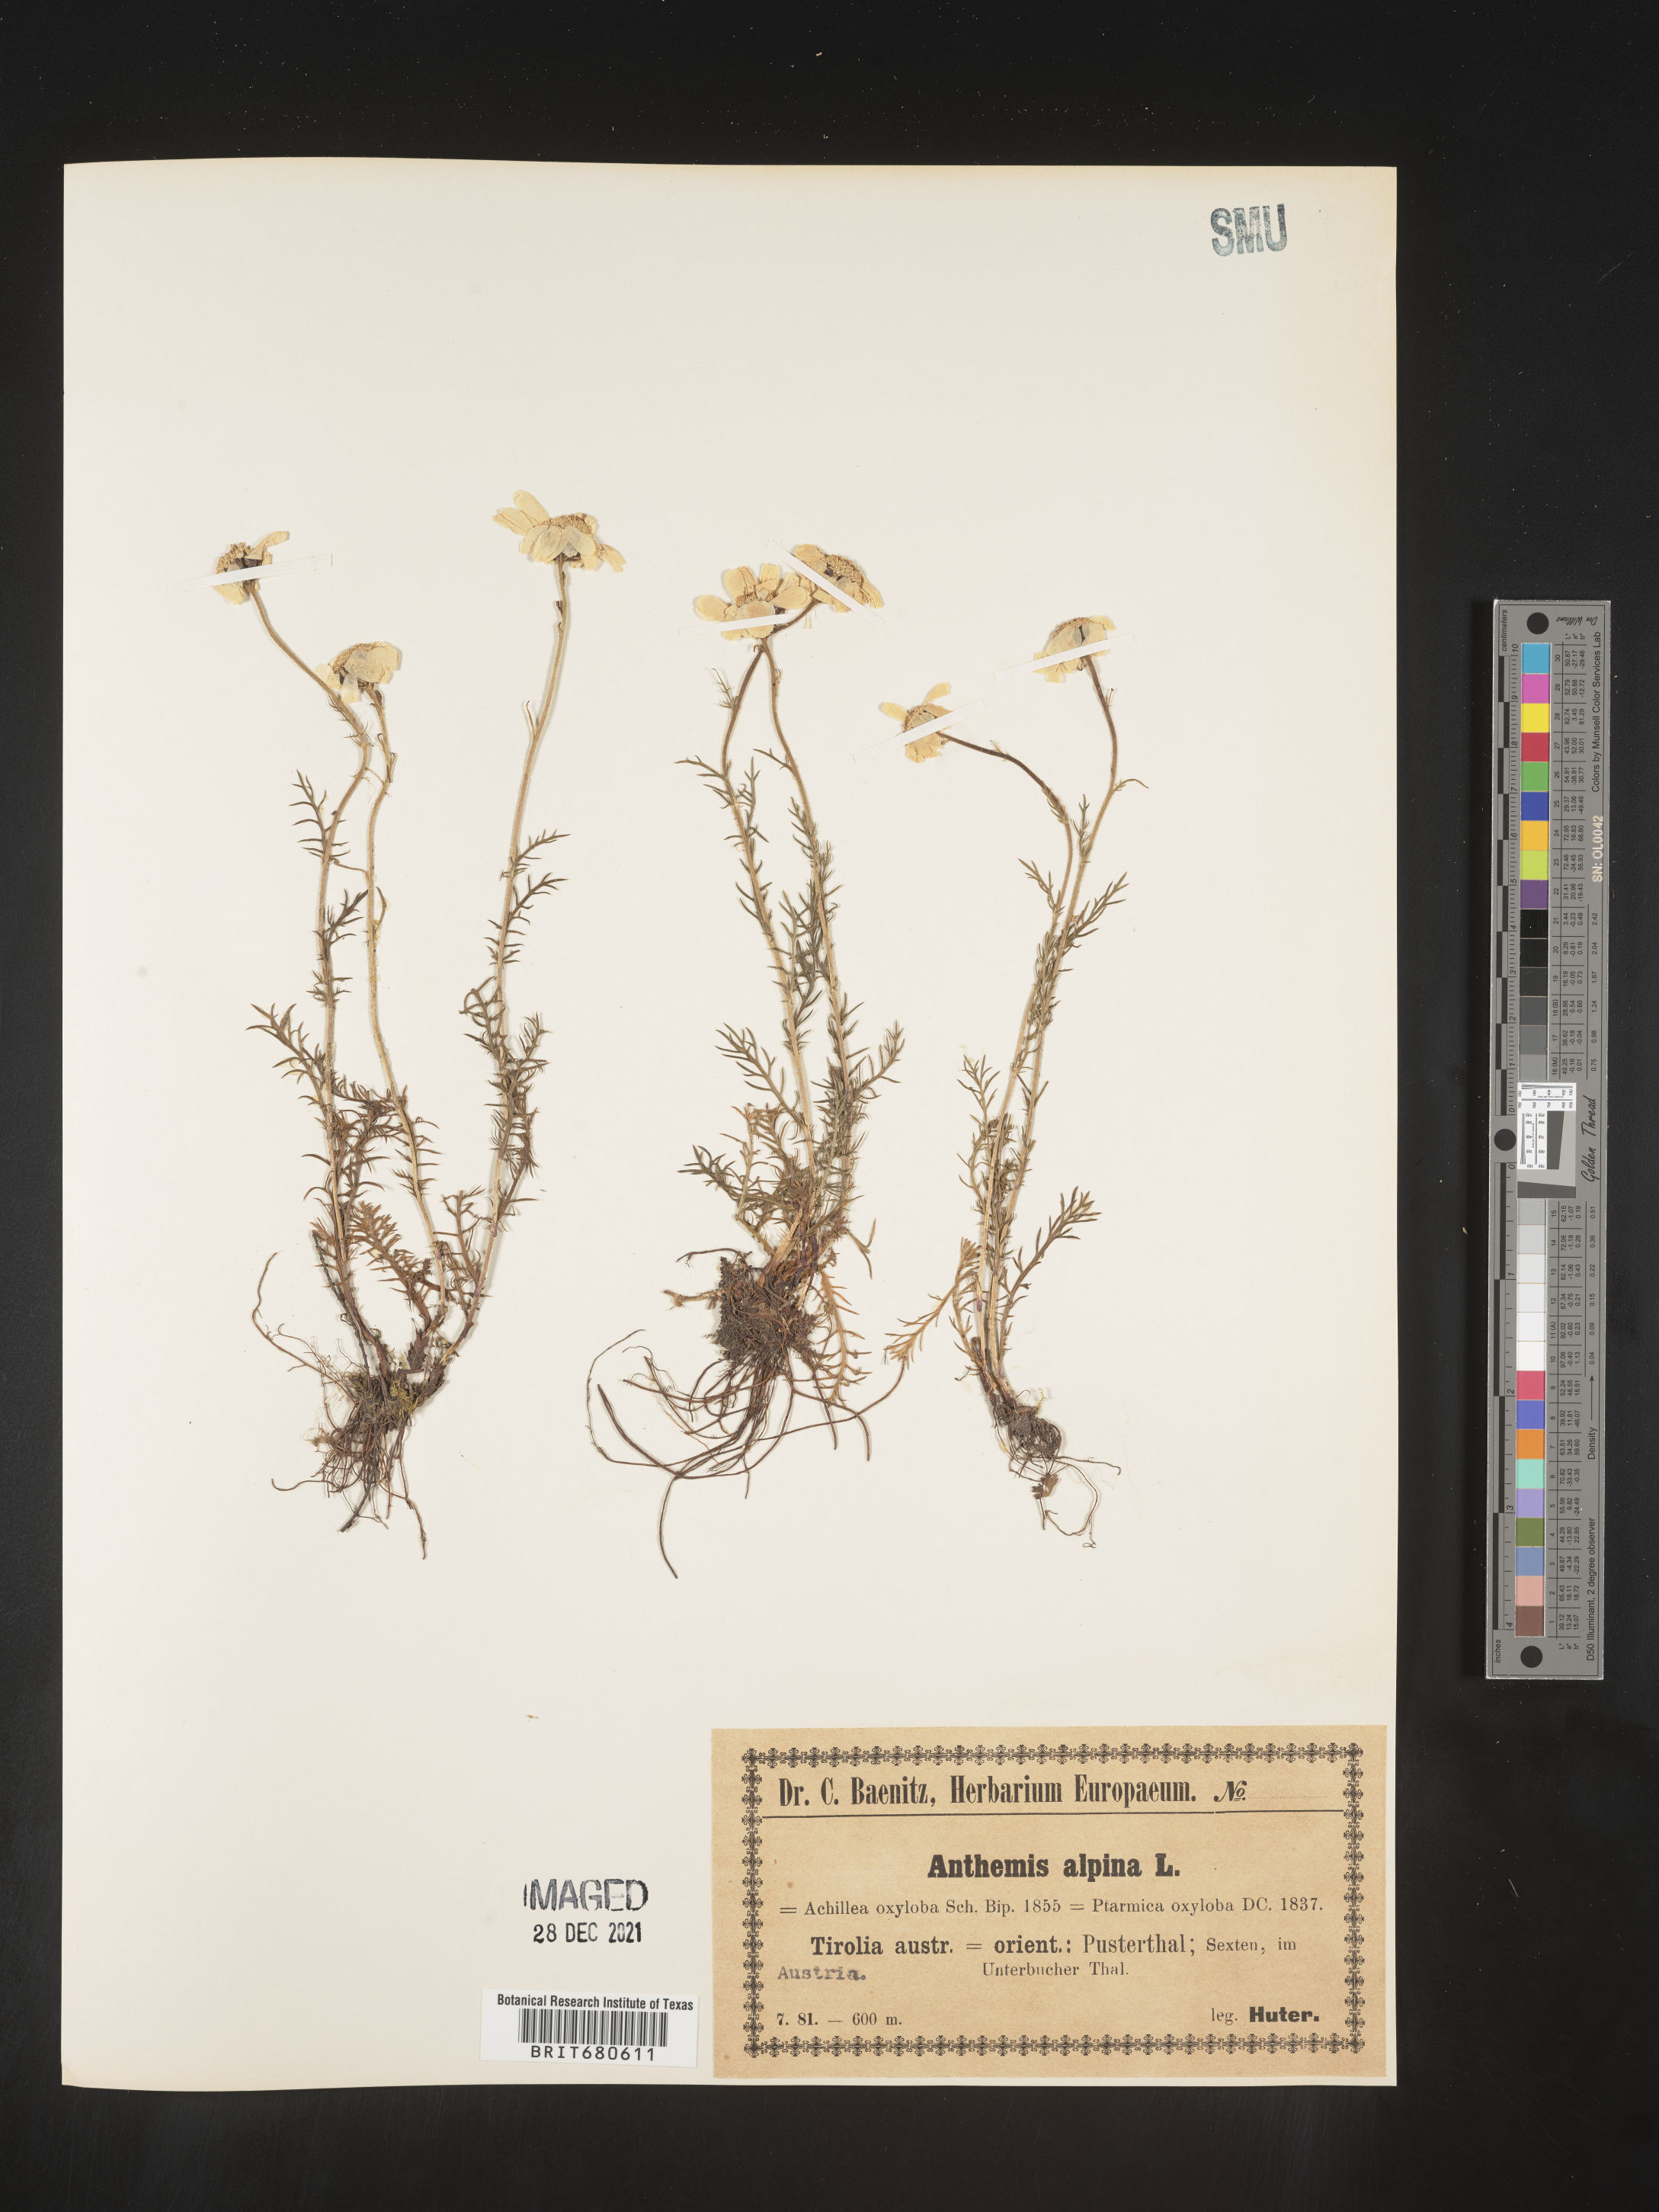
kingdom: Plantae
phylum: Tracheophyta
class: Magnoliopsida
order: Asterales
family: Asteraceae
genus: Anthemis
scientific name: Anthemis
